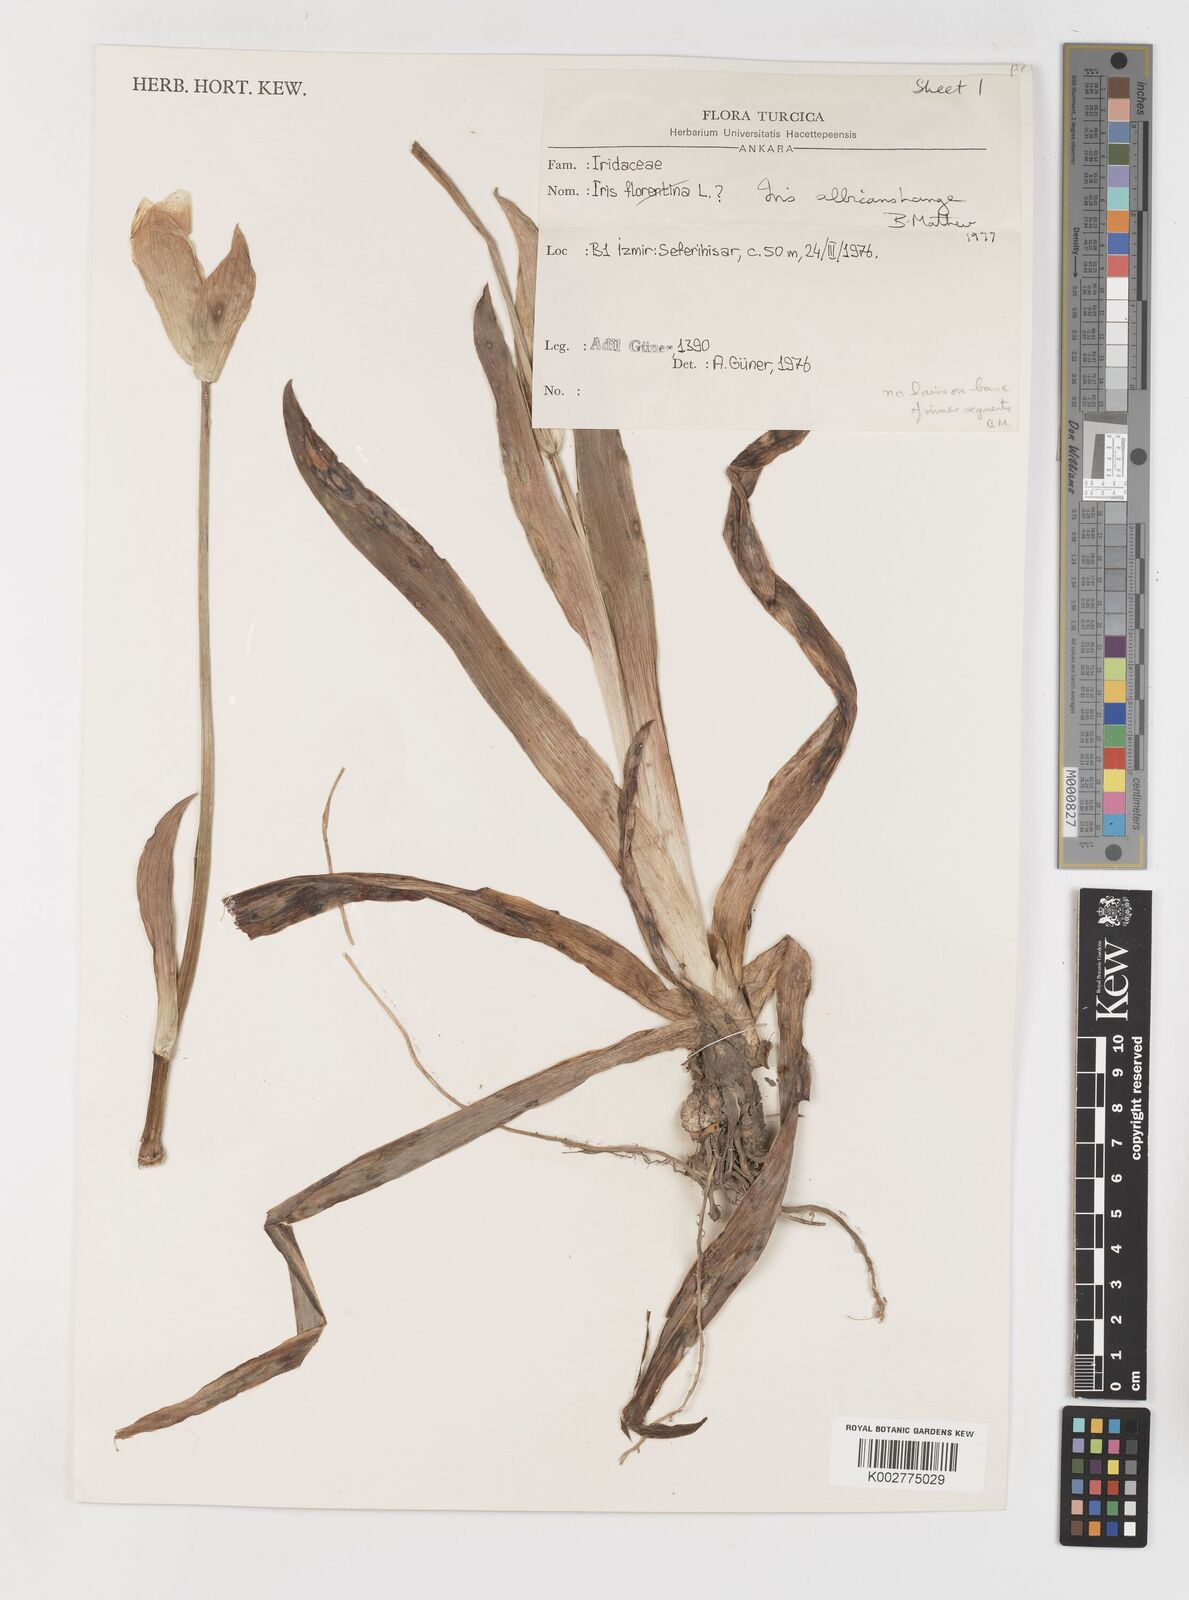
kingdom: Plantae
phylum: Tracheophyta
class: Liliopsida
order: Asparagales
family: Iridaceae
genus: Iris
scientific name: Iris florentina
